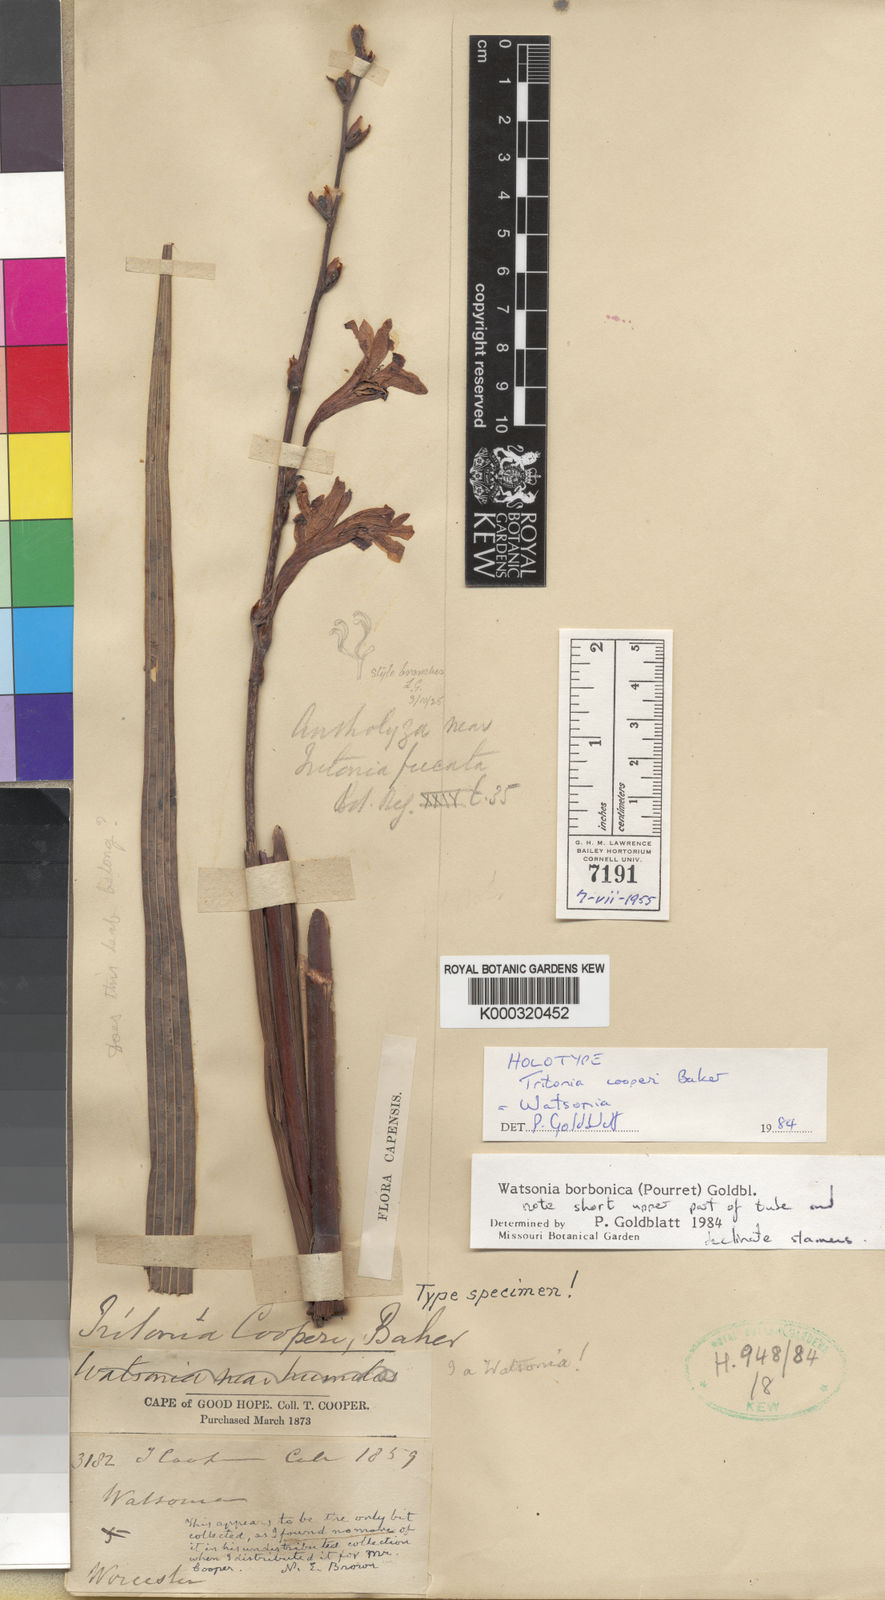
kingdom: Plantae
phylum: Tracheophyta
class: Liliopsida
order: Asparagales
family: Iridaceae
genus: Watsonia
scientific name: Watsonia borbonica
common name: Bugle-lily
